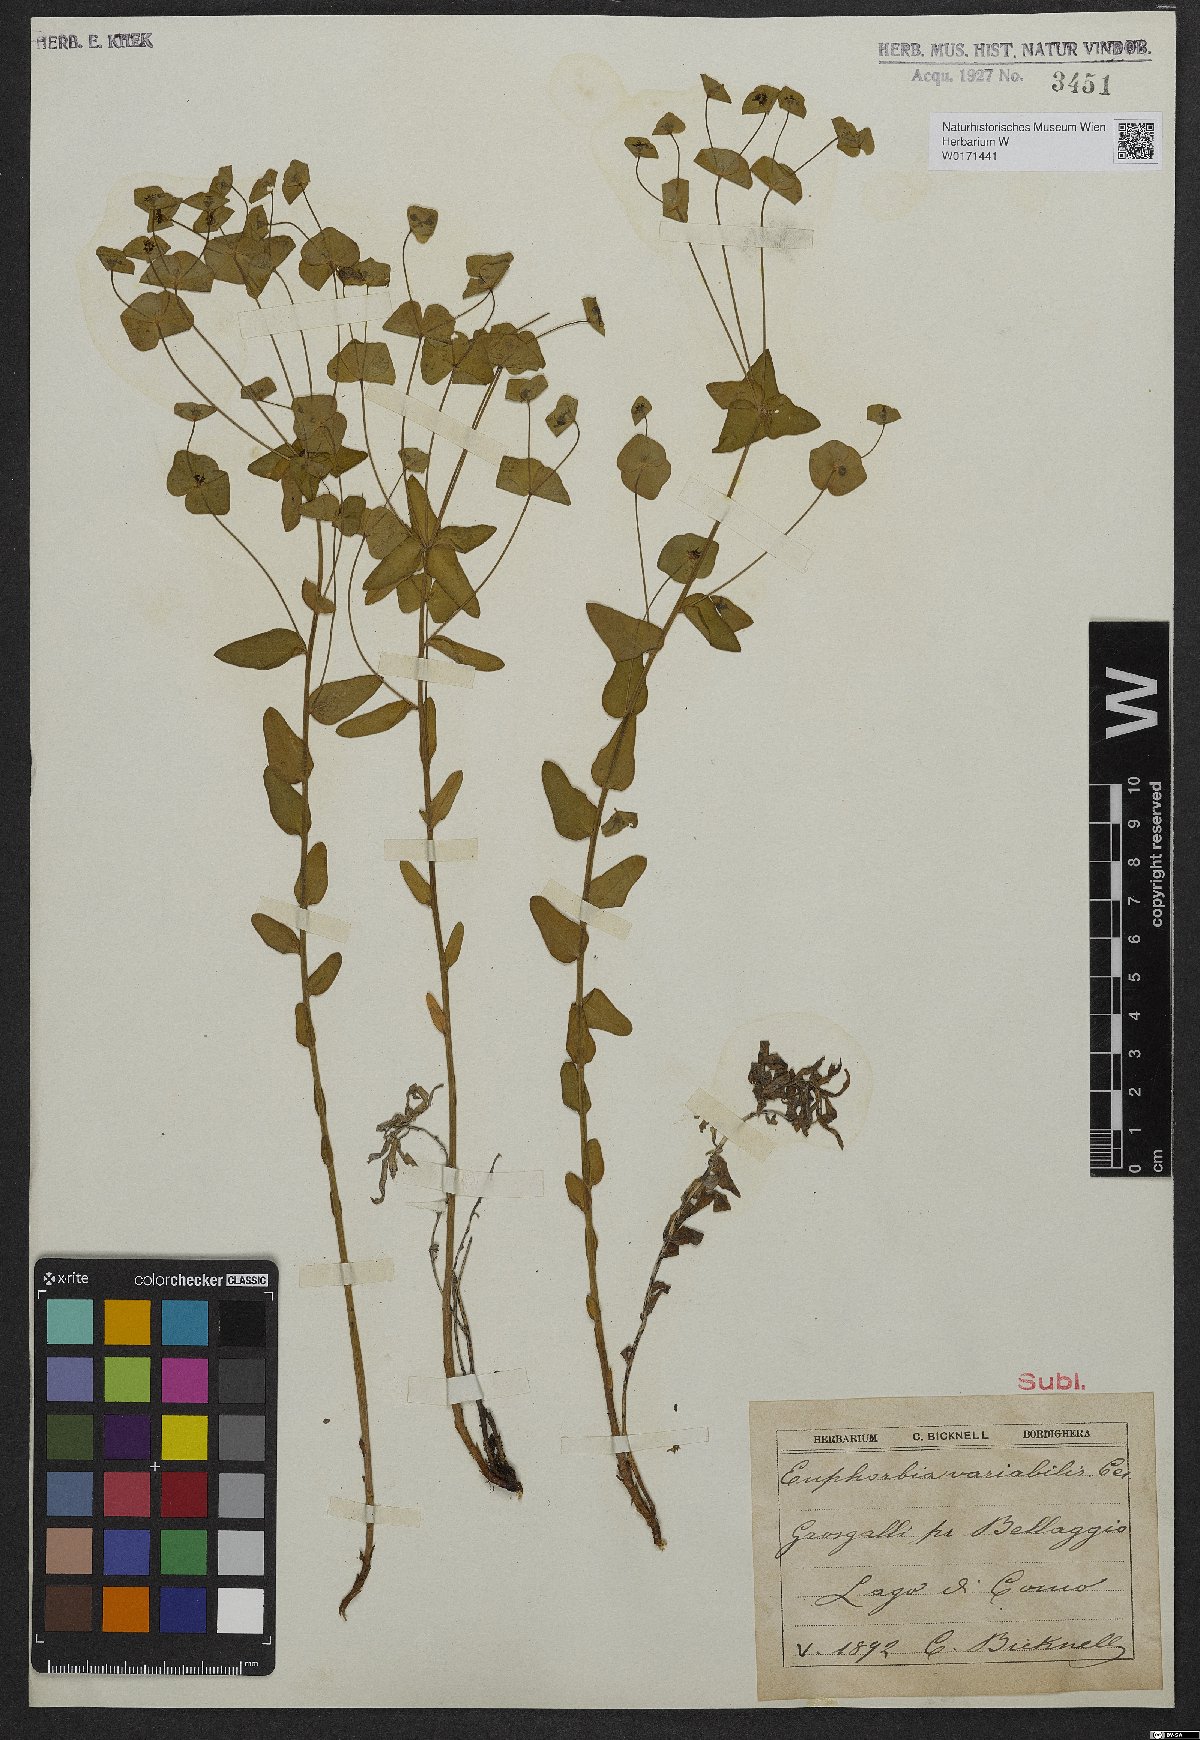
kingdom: Plantae
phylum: Tracheophyta
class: Magnoliopsida
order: Malpighiales
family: Euphorbiaceae
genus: Euphorbia
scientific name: Euphorbia variabilis
